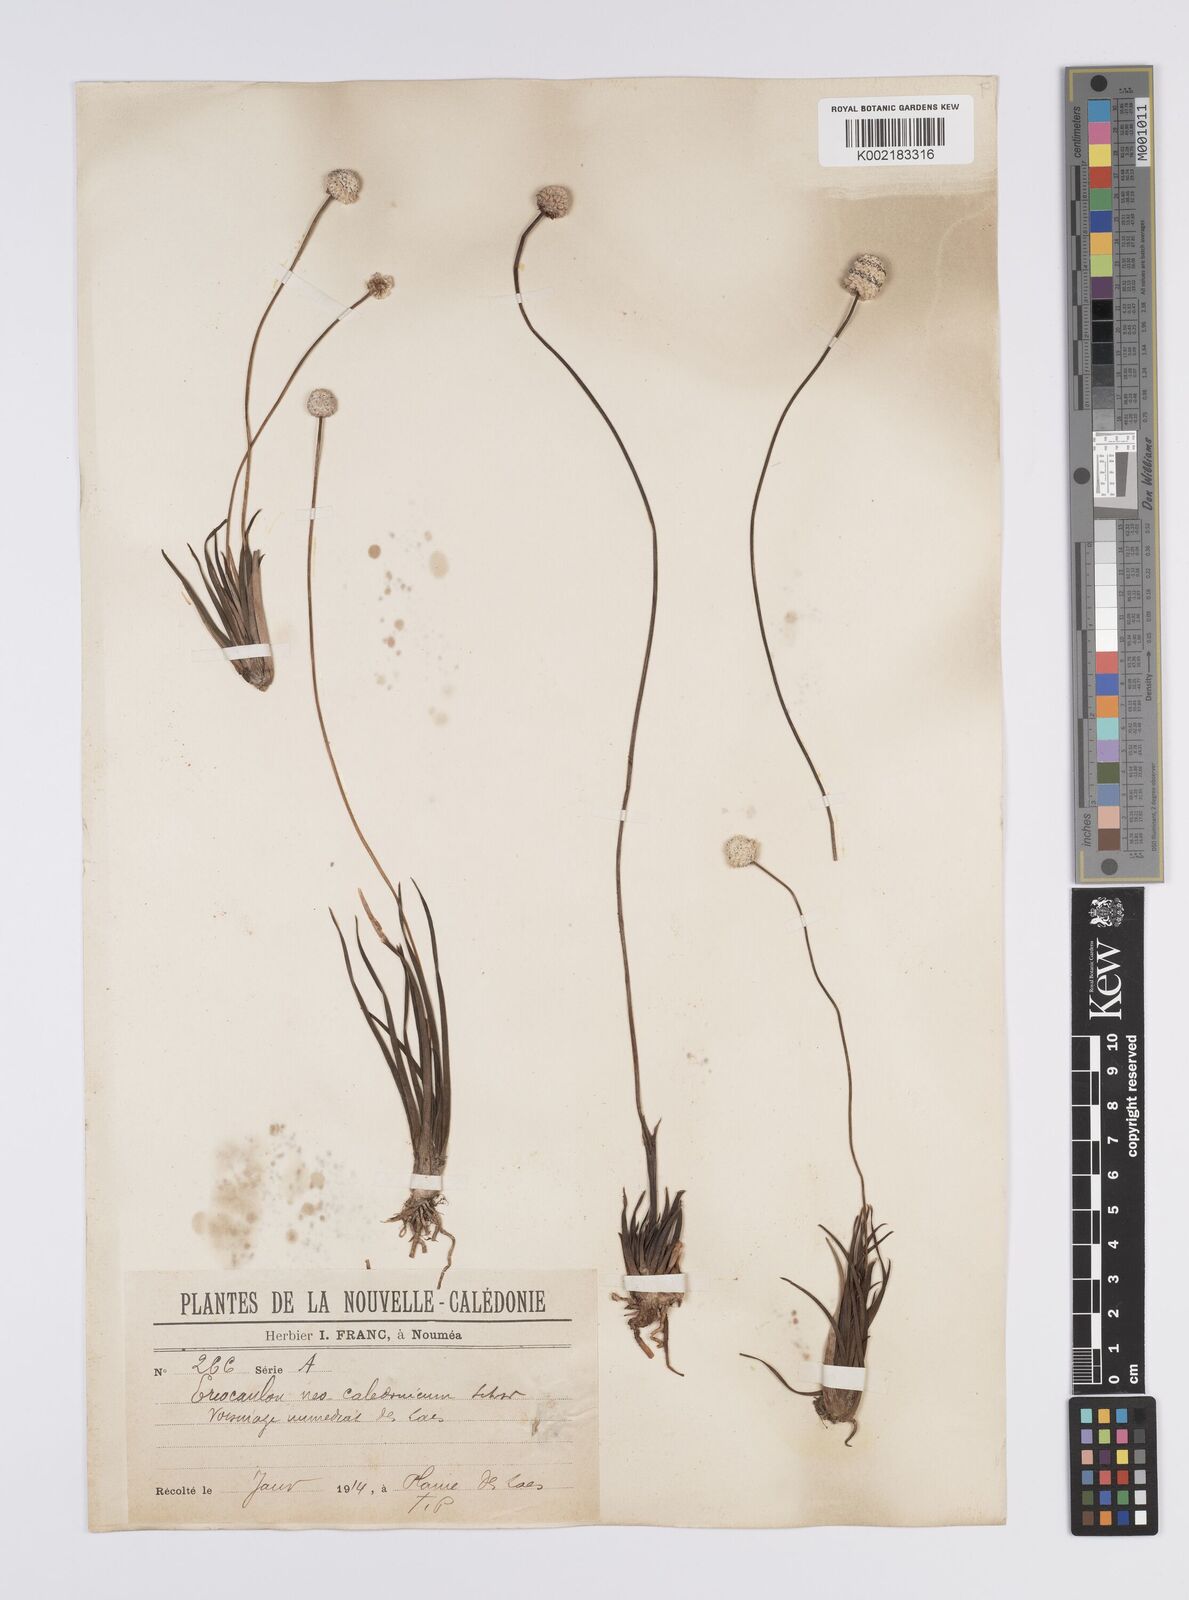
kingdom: Plantae
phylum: Tracheophyta
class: Liliopsida
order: Poales
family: Eriocaulaceae
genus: Eriocaulon
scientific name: Eriocaulon neocaledonicum
